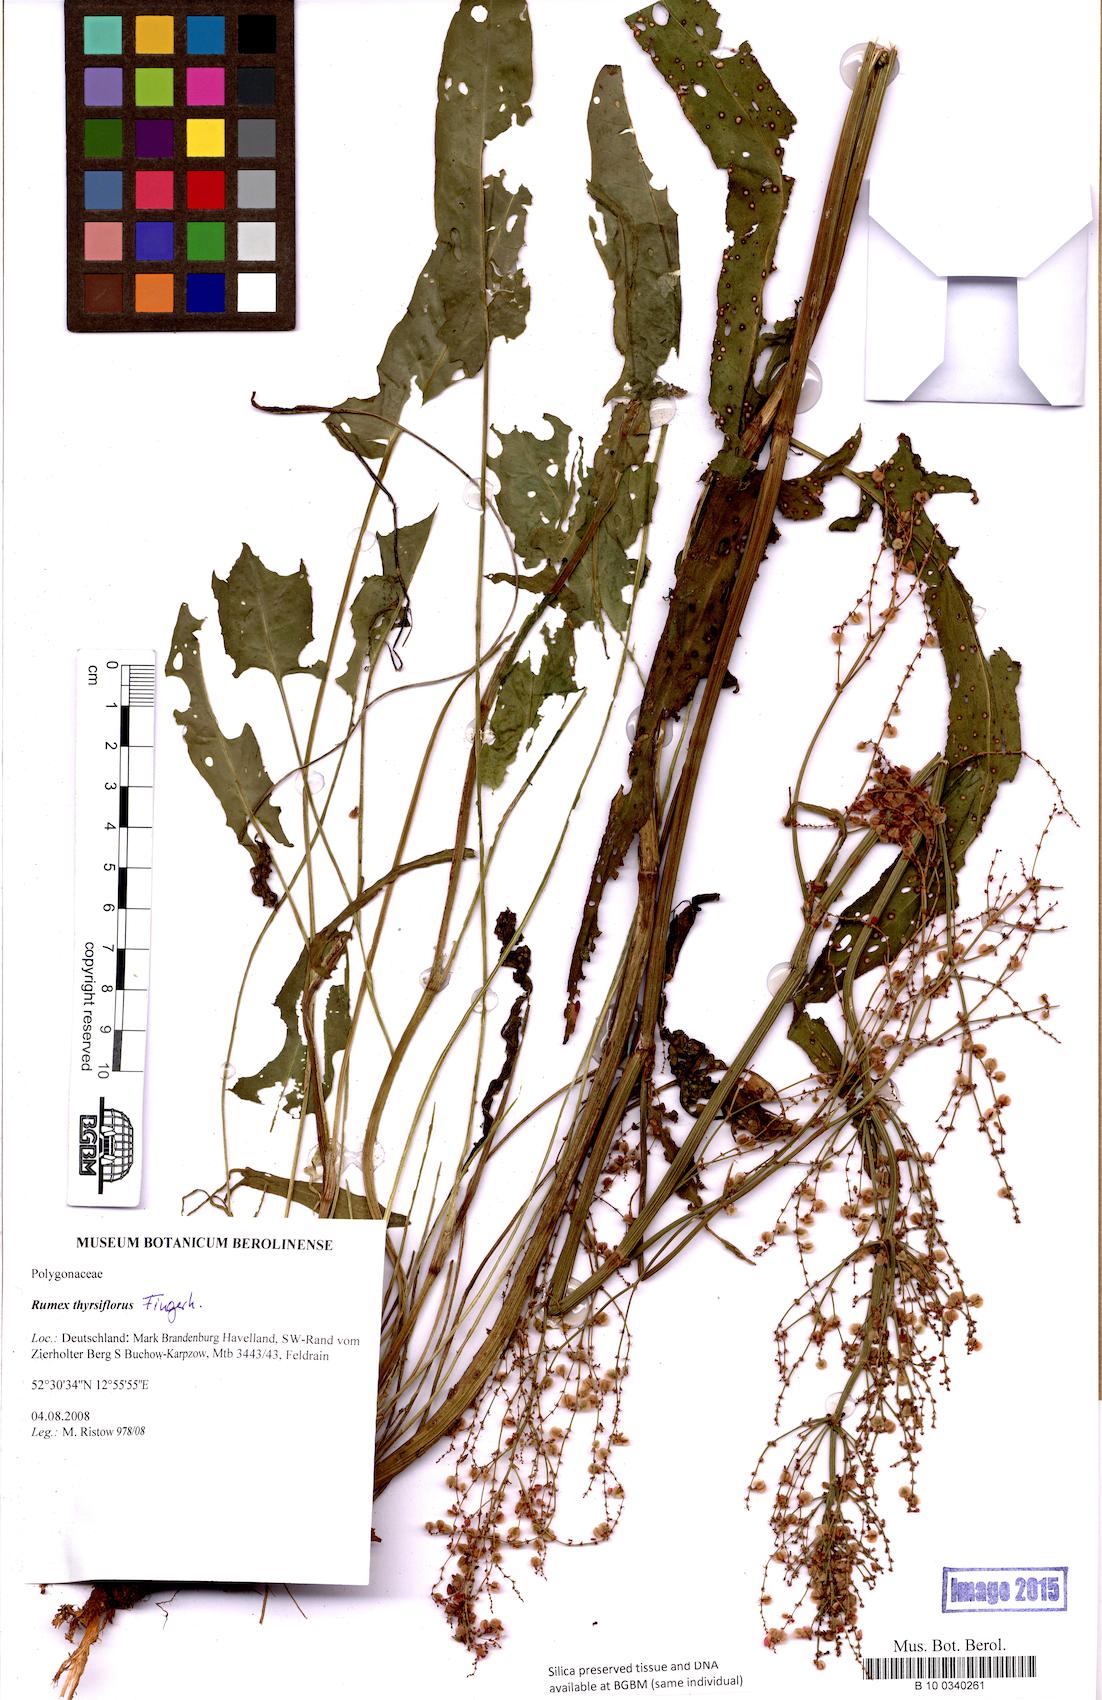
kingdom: Plantae
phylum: Tracheophyta
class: Magnoliopsida
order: Caryophyllales
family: Polygonaceae
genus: Rumex
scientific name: Rumex thyrsiflorus
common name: Garden sorrel
